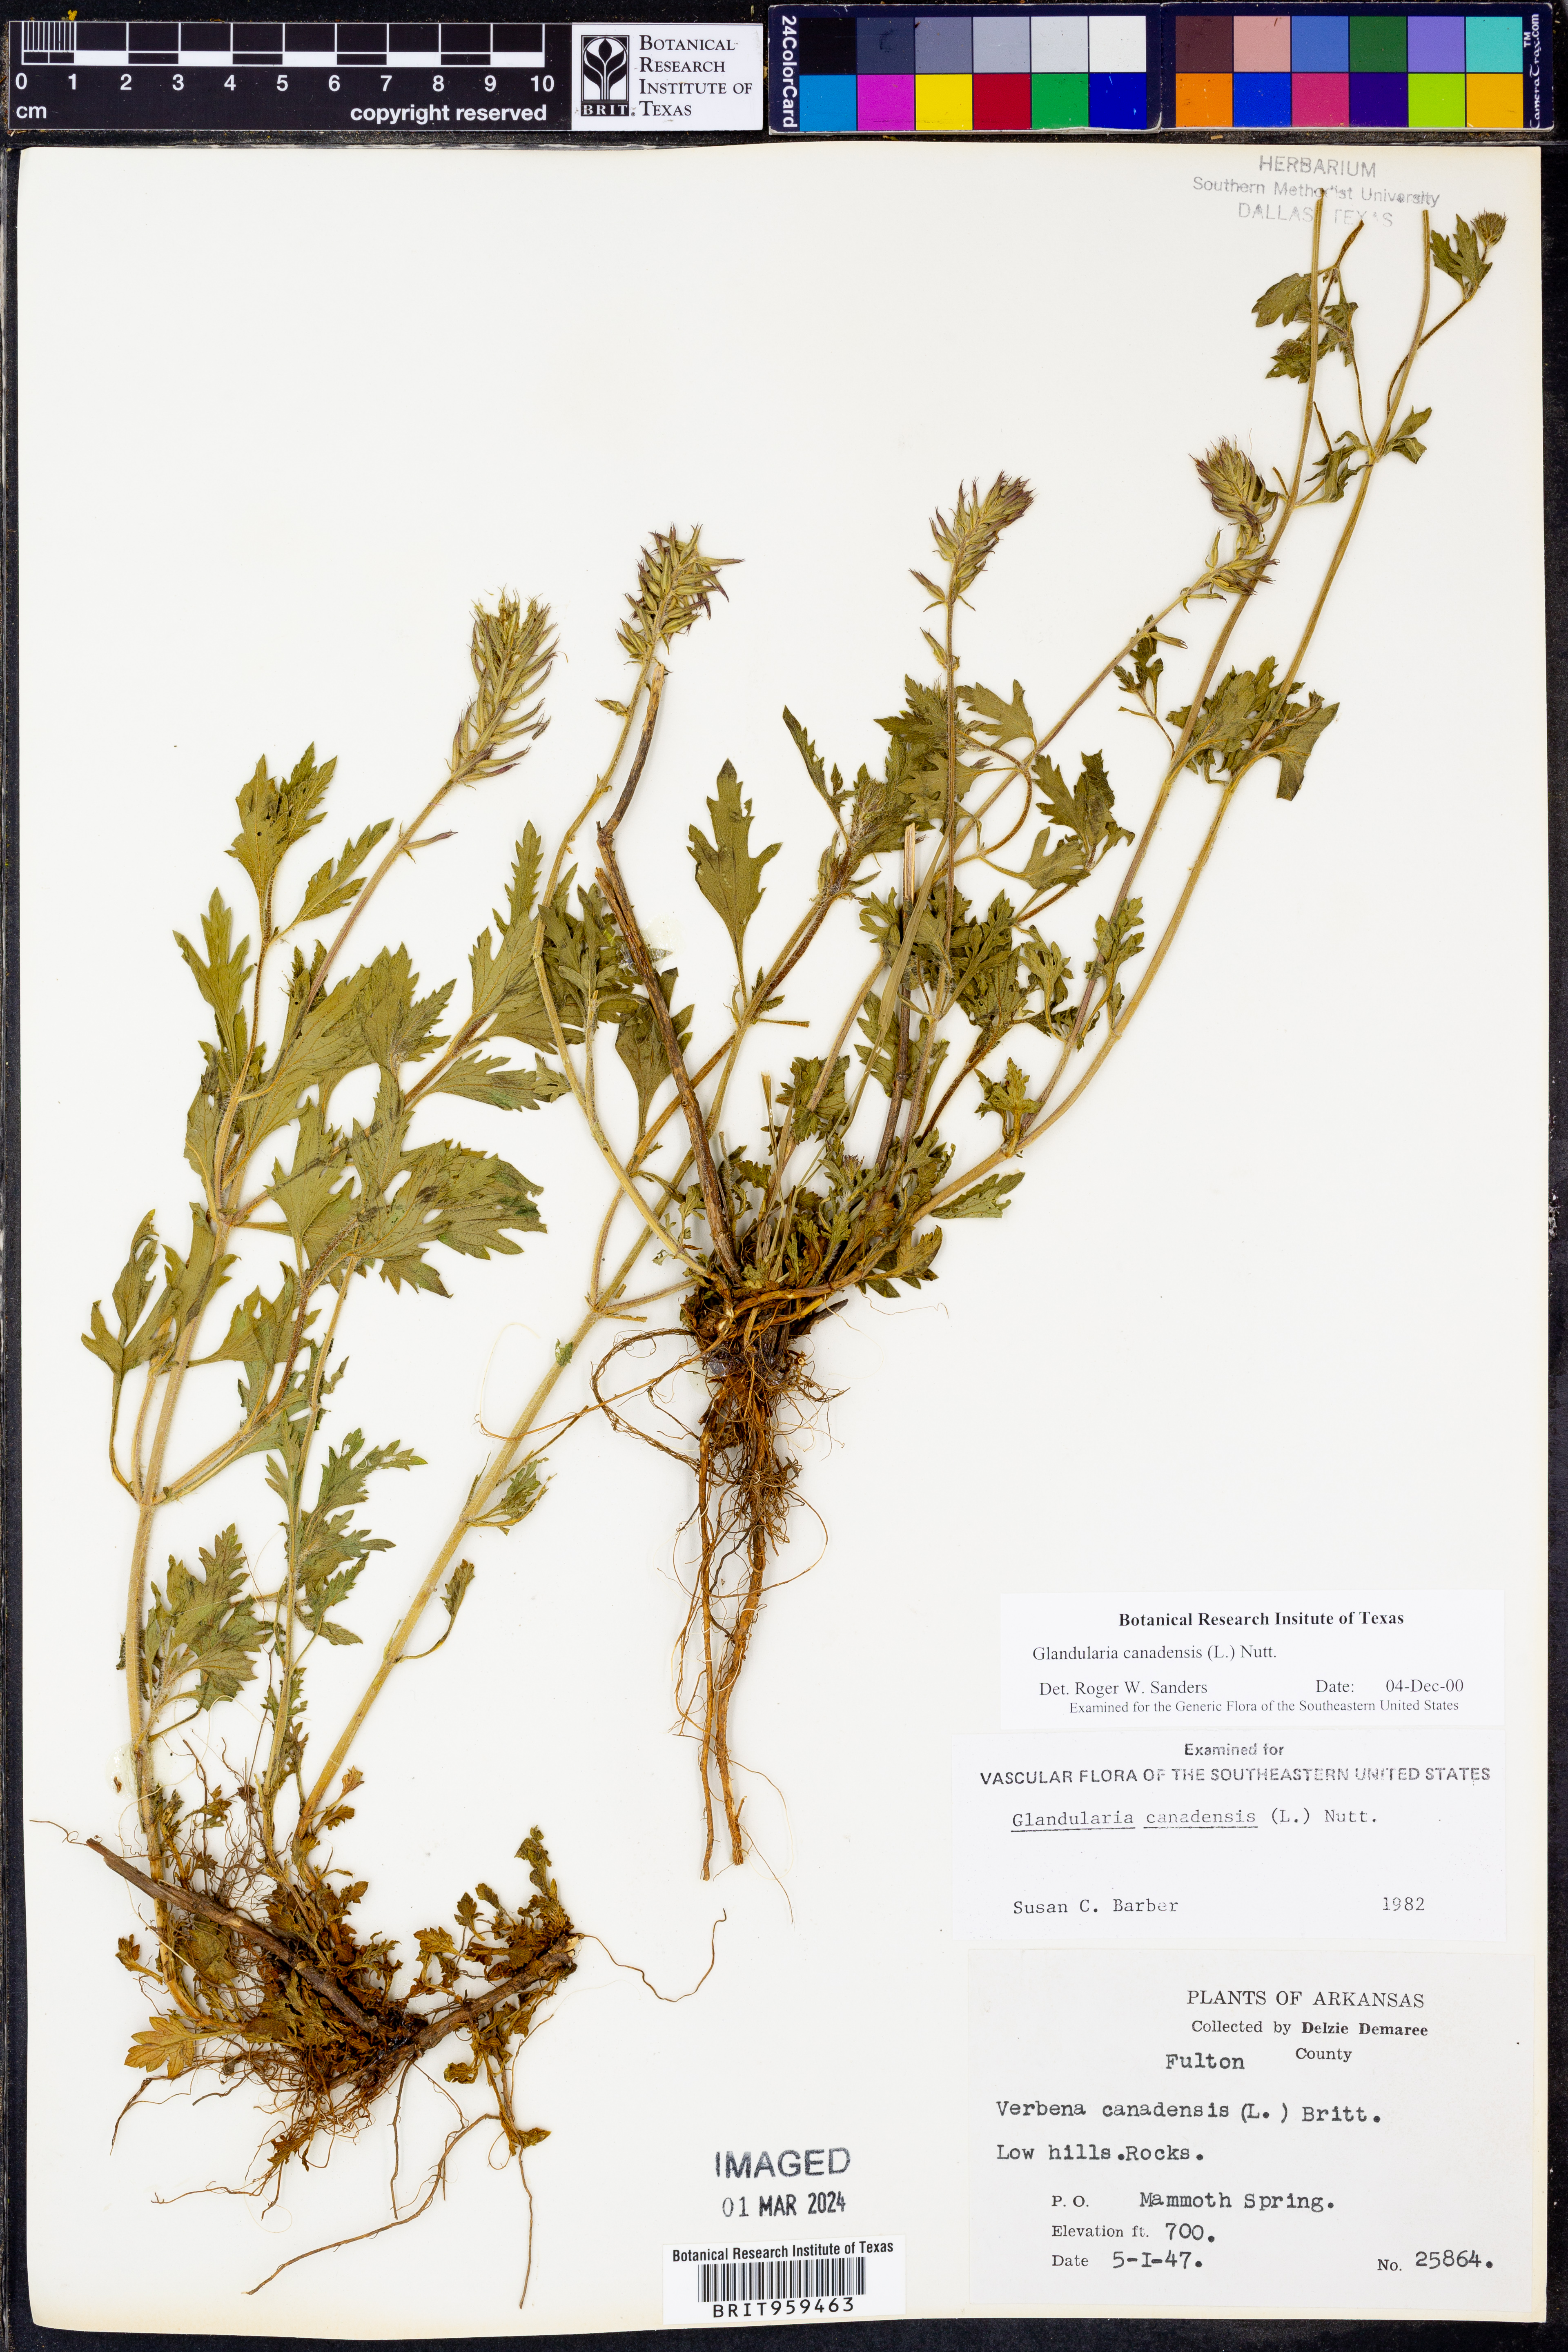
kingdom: Plantae
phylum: Tracheophyta
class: Magnoliopsida
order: Lamiales
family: Verbenaceae
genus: Verbena
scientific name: Verbena canadensis
